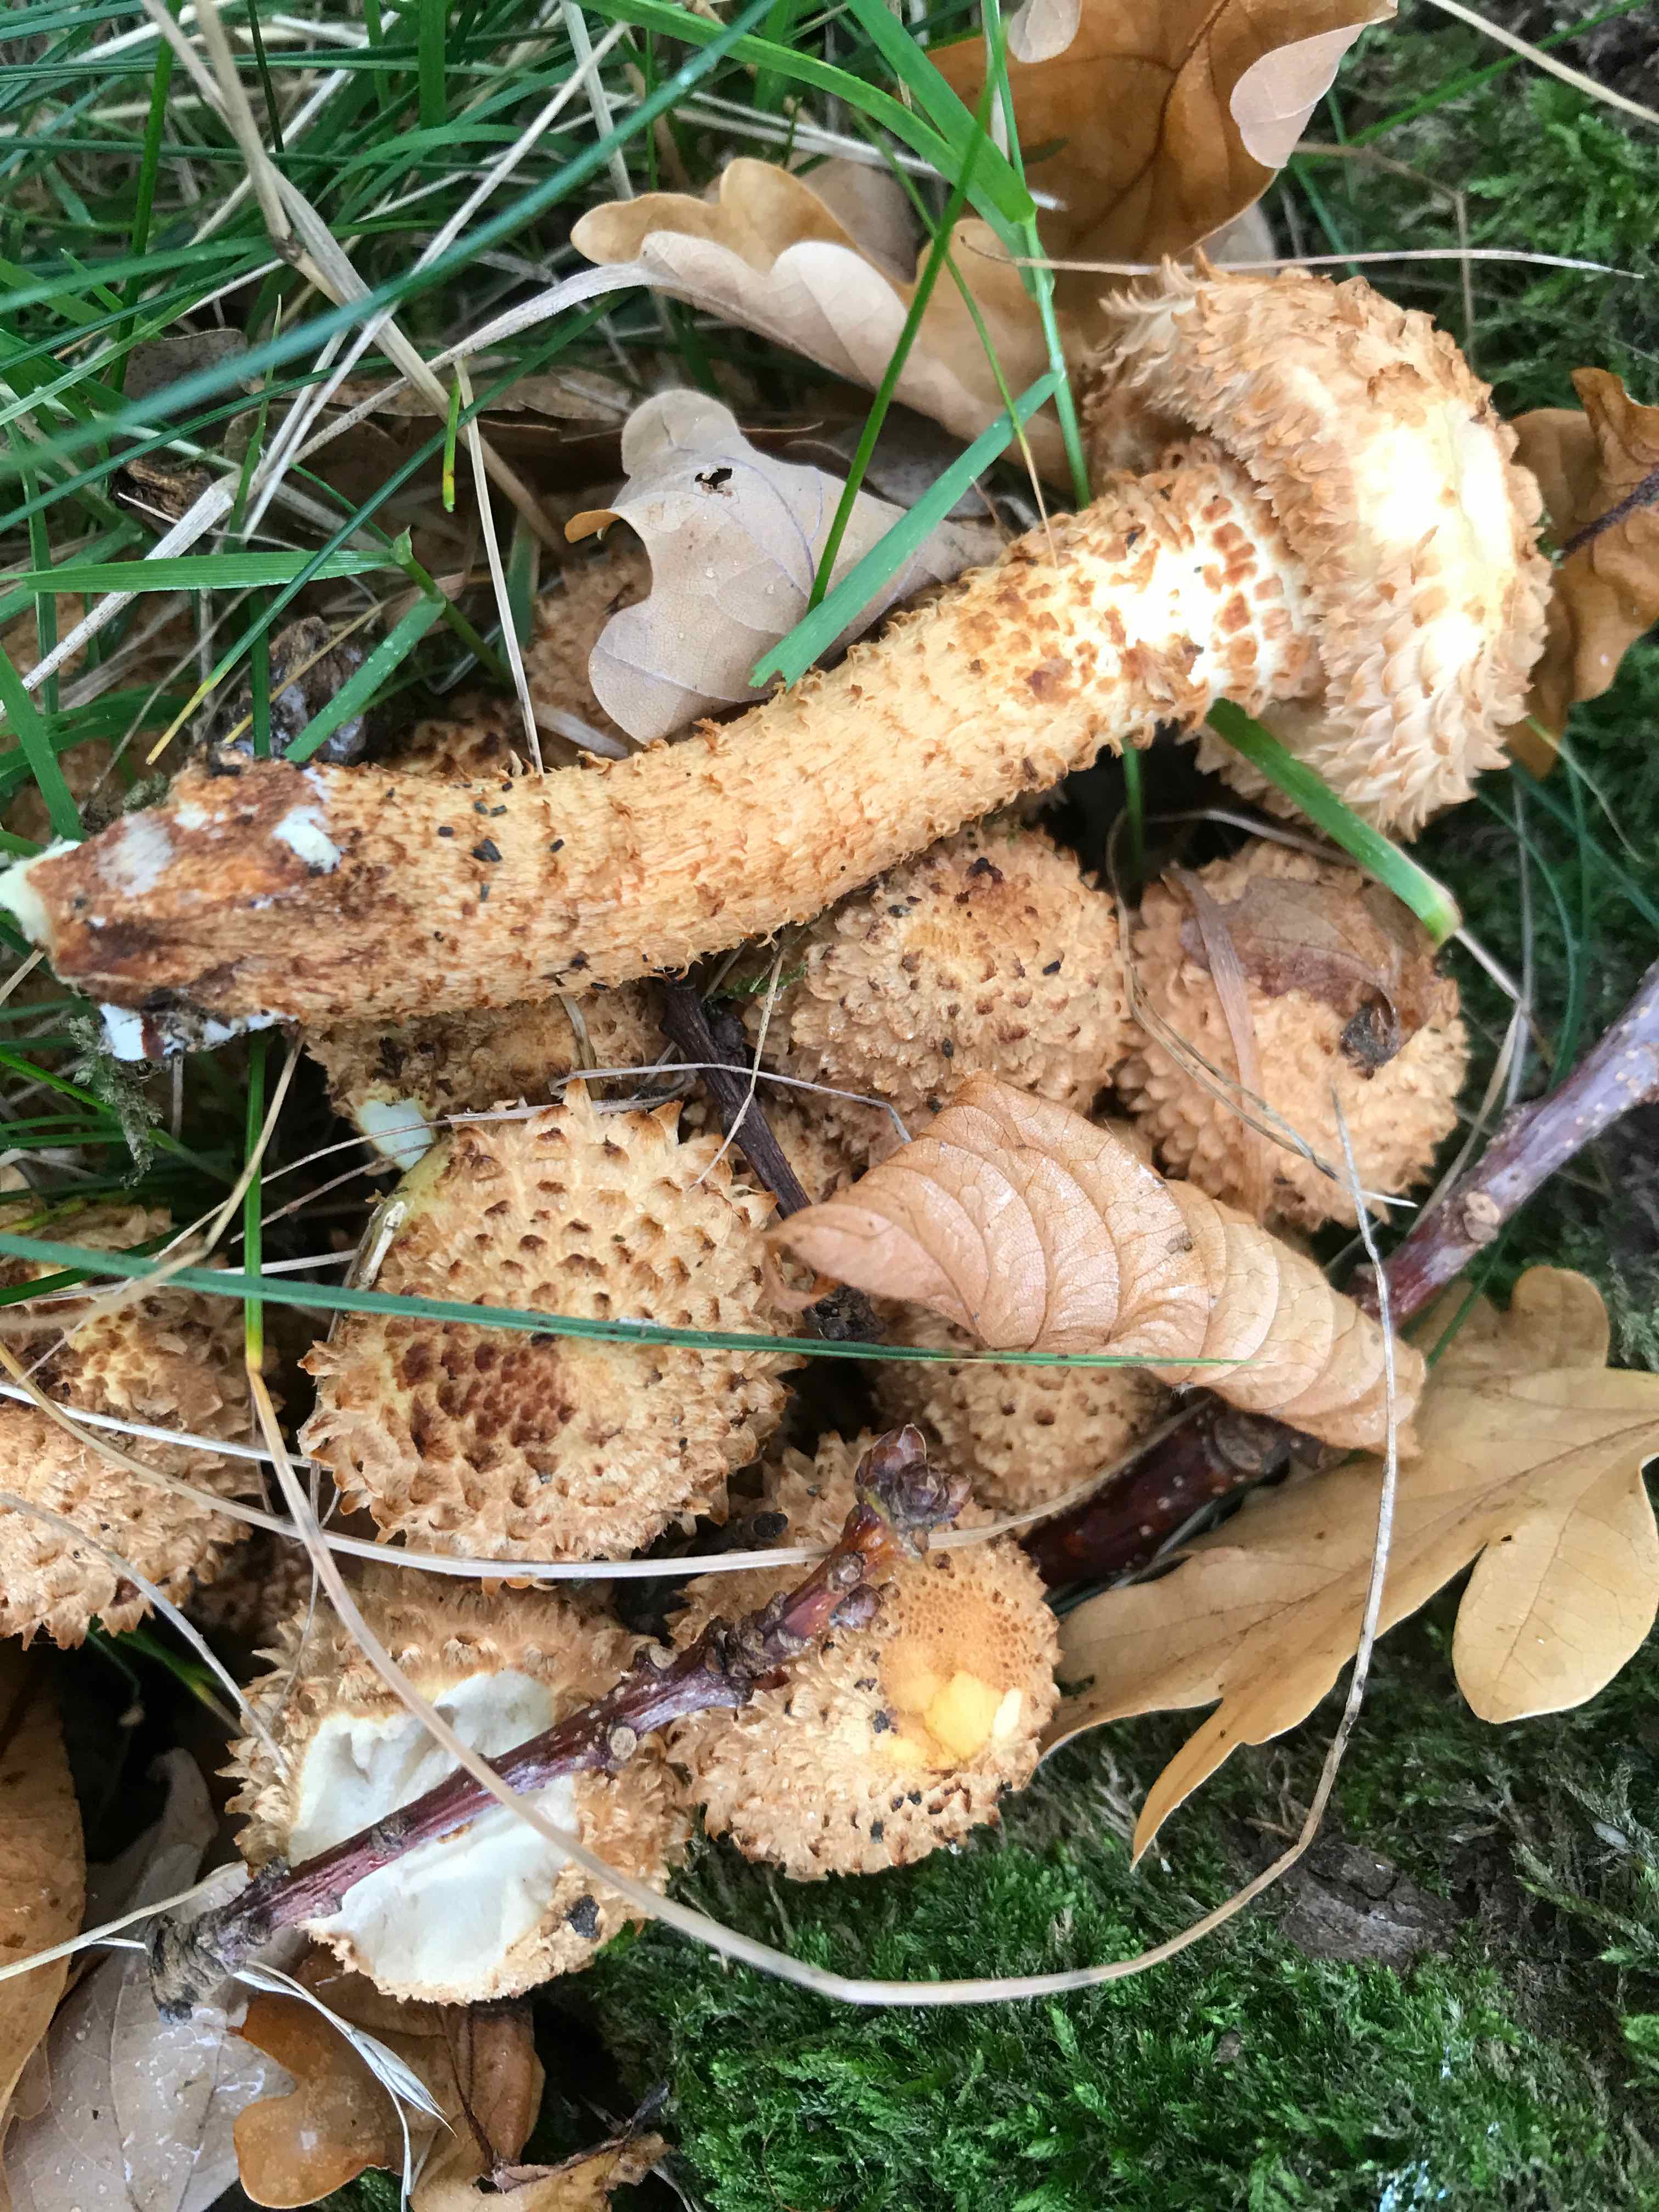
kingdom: Fungi
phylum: Basidiomycota
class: Agaricomycetes
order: Agaricales
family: Strophariaceae
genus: Pholiota
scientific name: Pholiota squarrosa
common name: krumskællet skælhat
